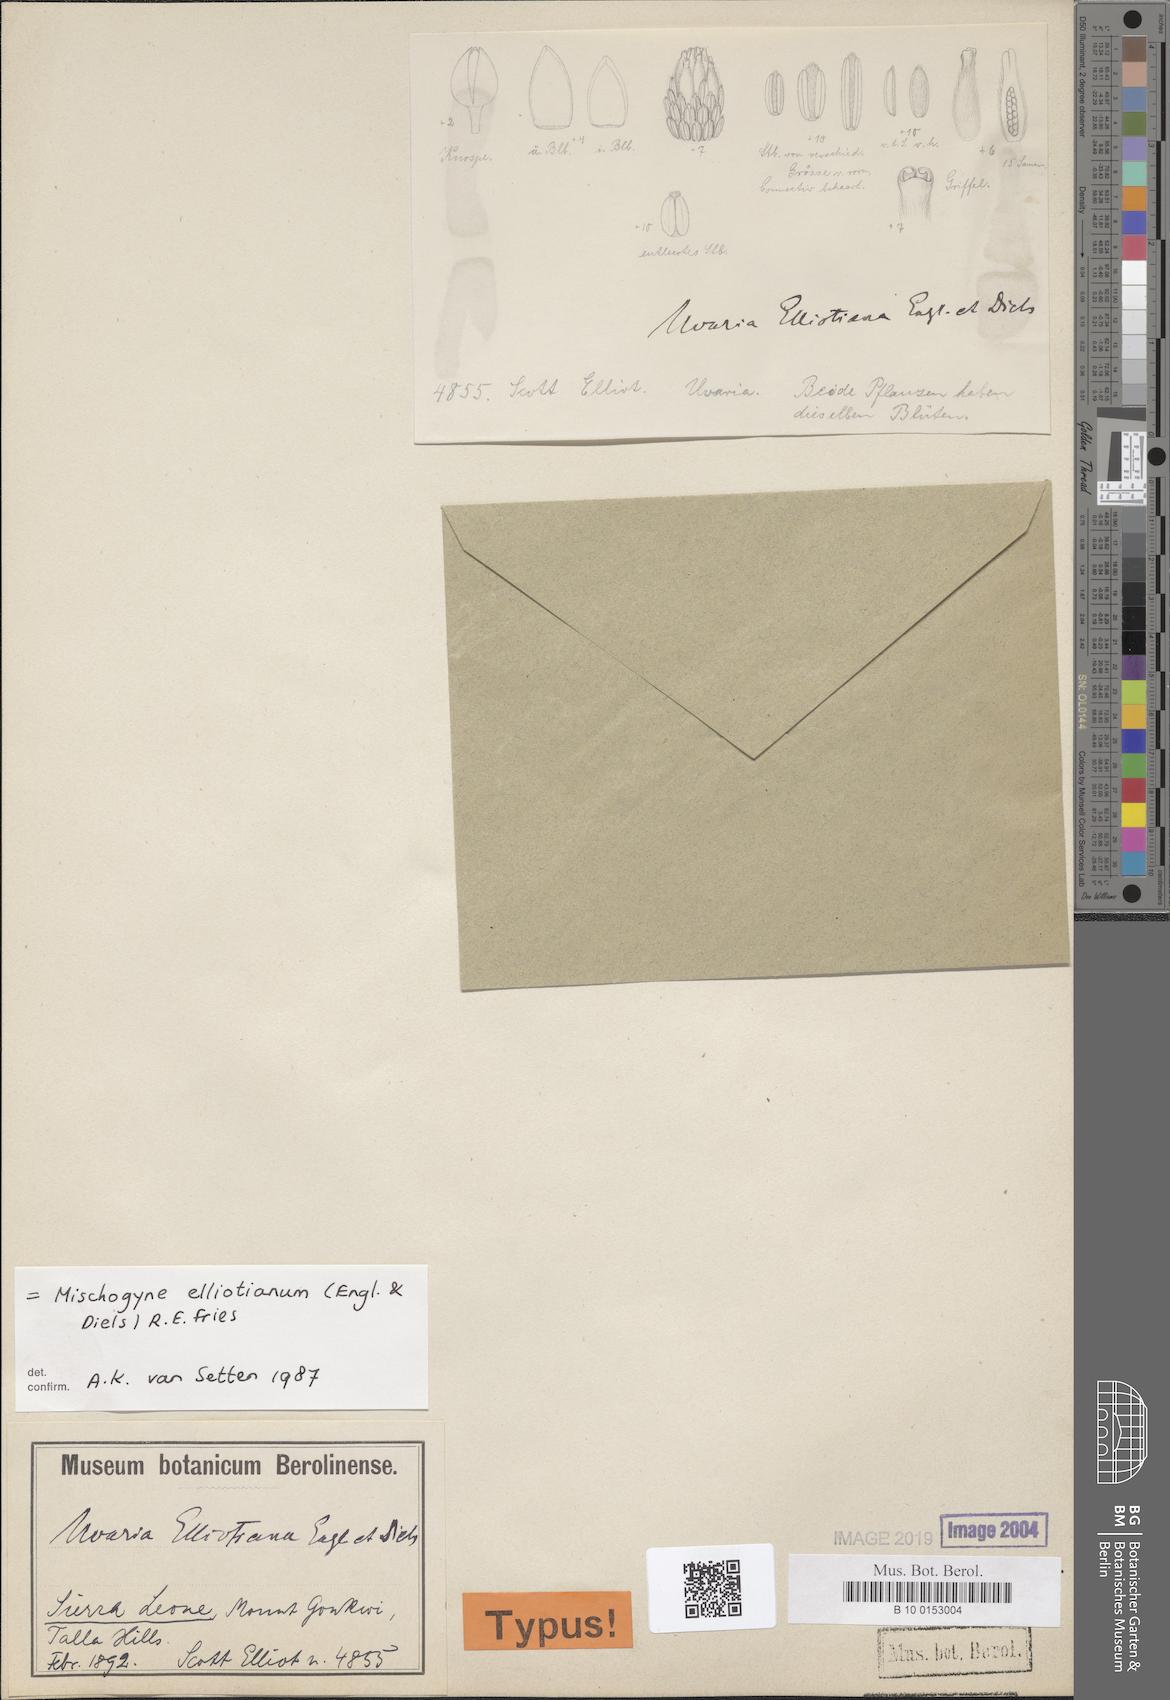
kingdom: Plantae
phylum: Tracheophyta
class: Magnoliopsida
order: Magnoliales
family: Annonaceae
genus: Mischogyne
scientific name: Mischogyne elliotianum
